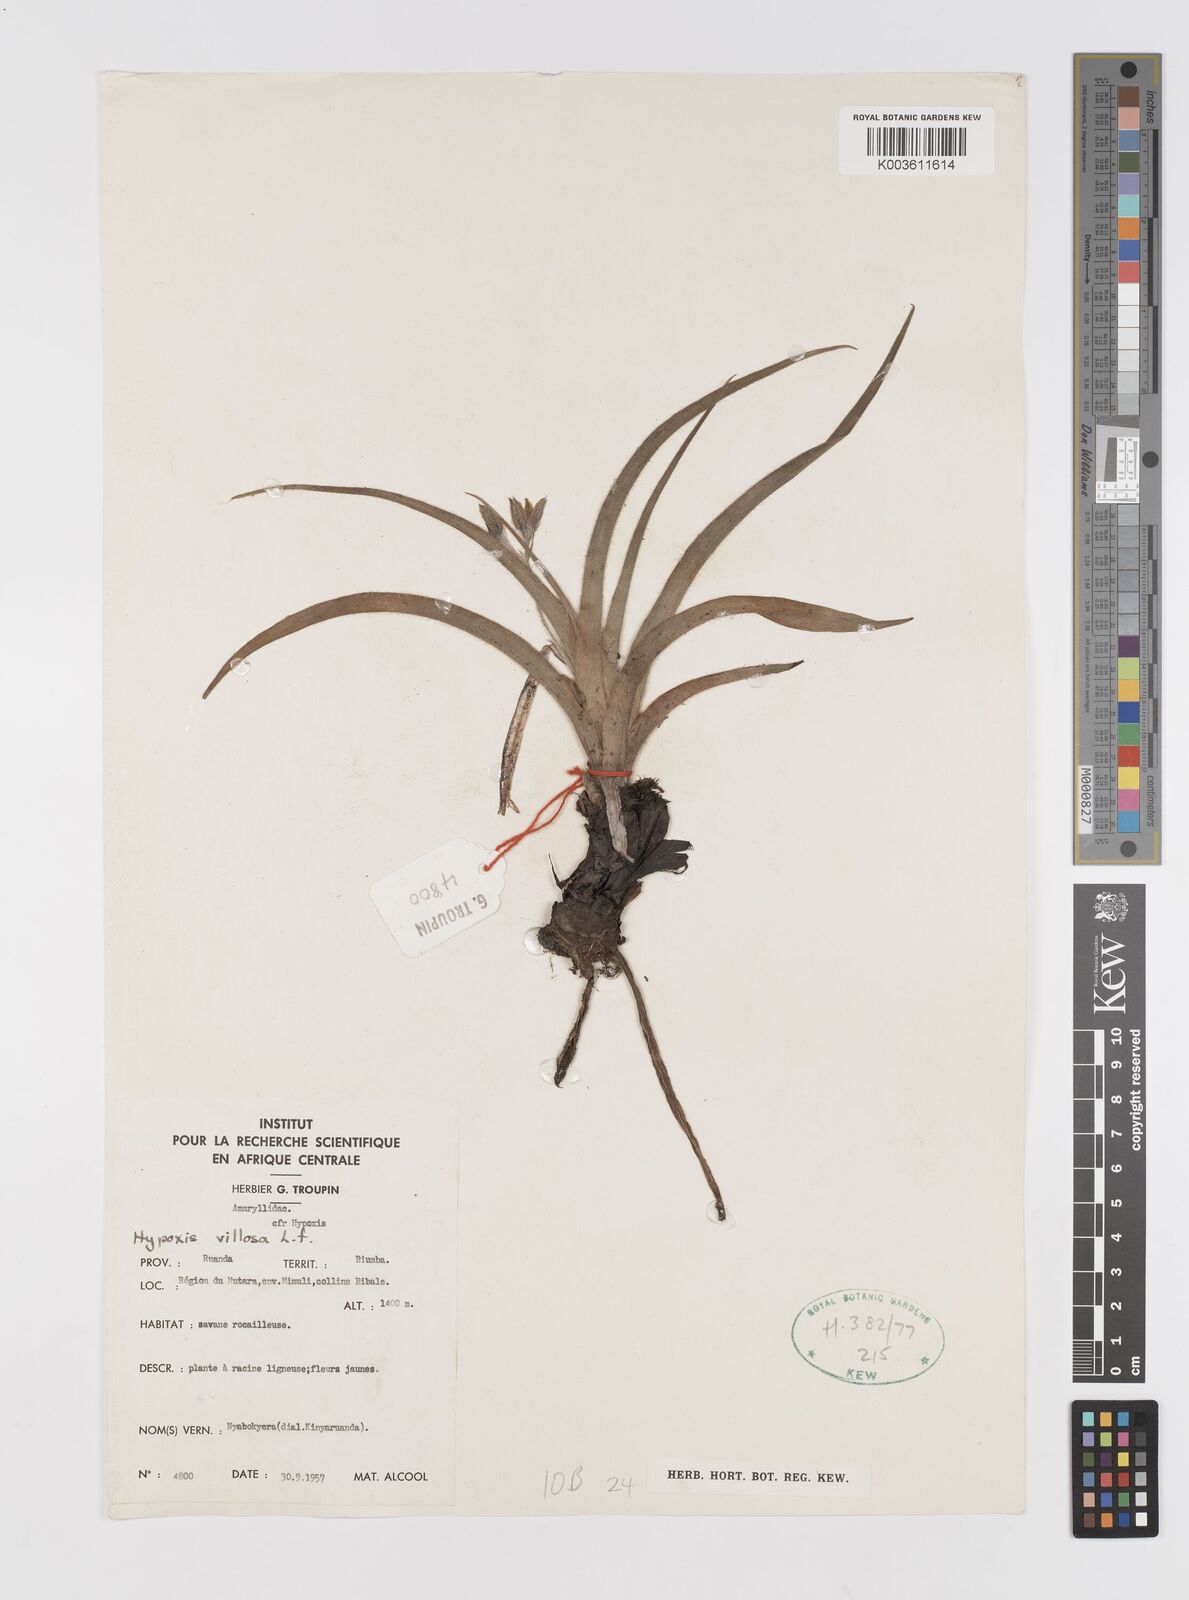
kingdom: Plantae
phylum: Tracheophyta
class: Liliopsida
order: Asparagales
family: Hypoxidaceae
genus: Hypoxis
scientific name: Hypoxis villosa
